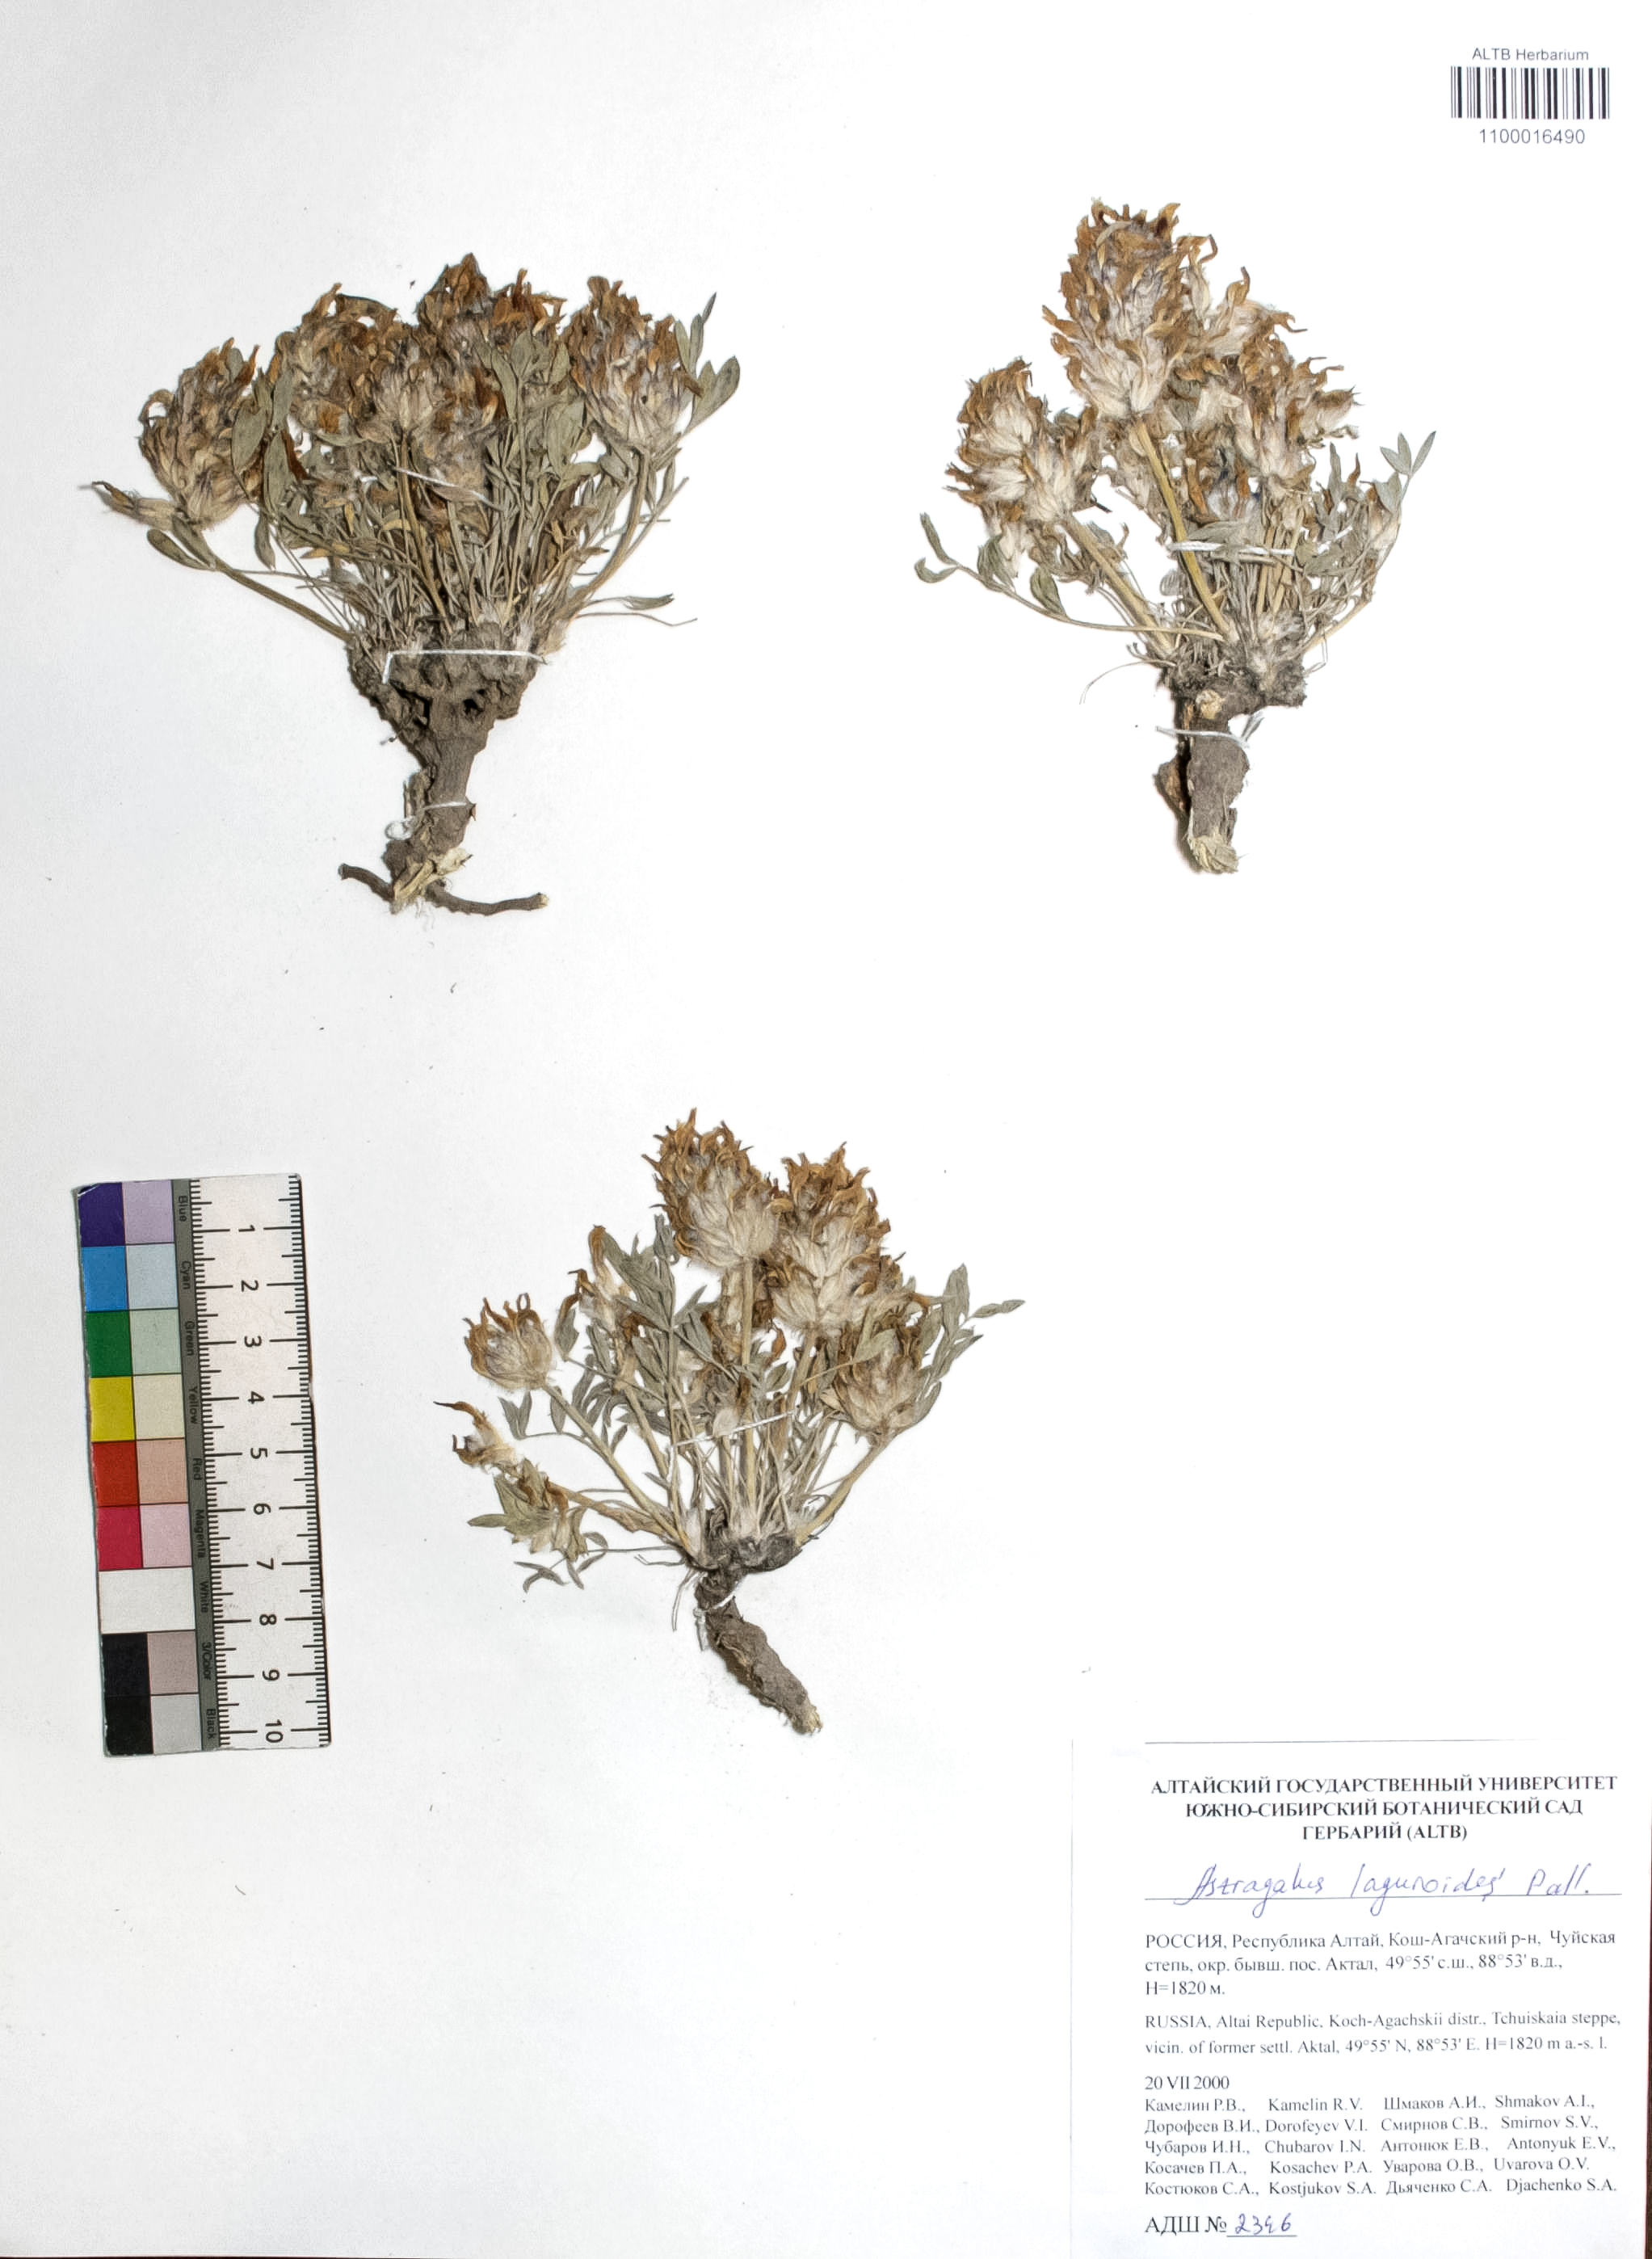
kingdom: Plantae
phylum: Tracheophyta
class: Magnoliopsida
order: Fabales
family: Fabaceae
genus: Astragalus
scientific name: Astragalus laguroides
